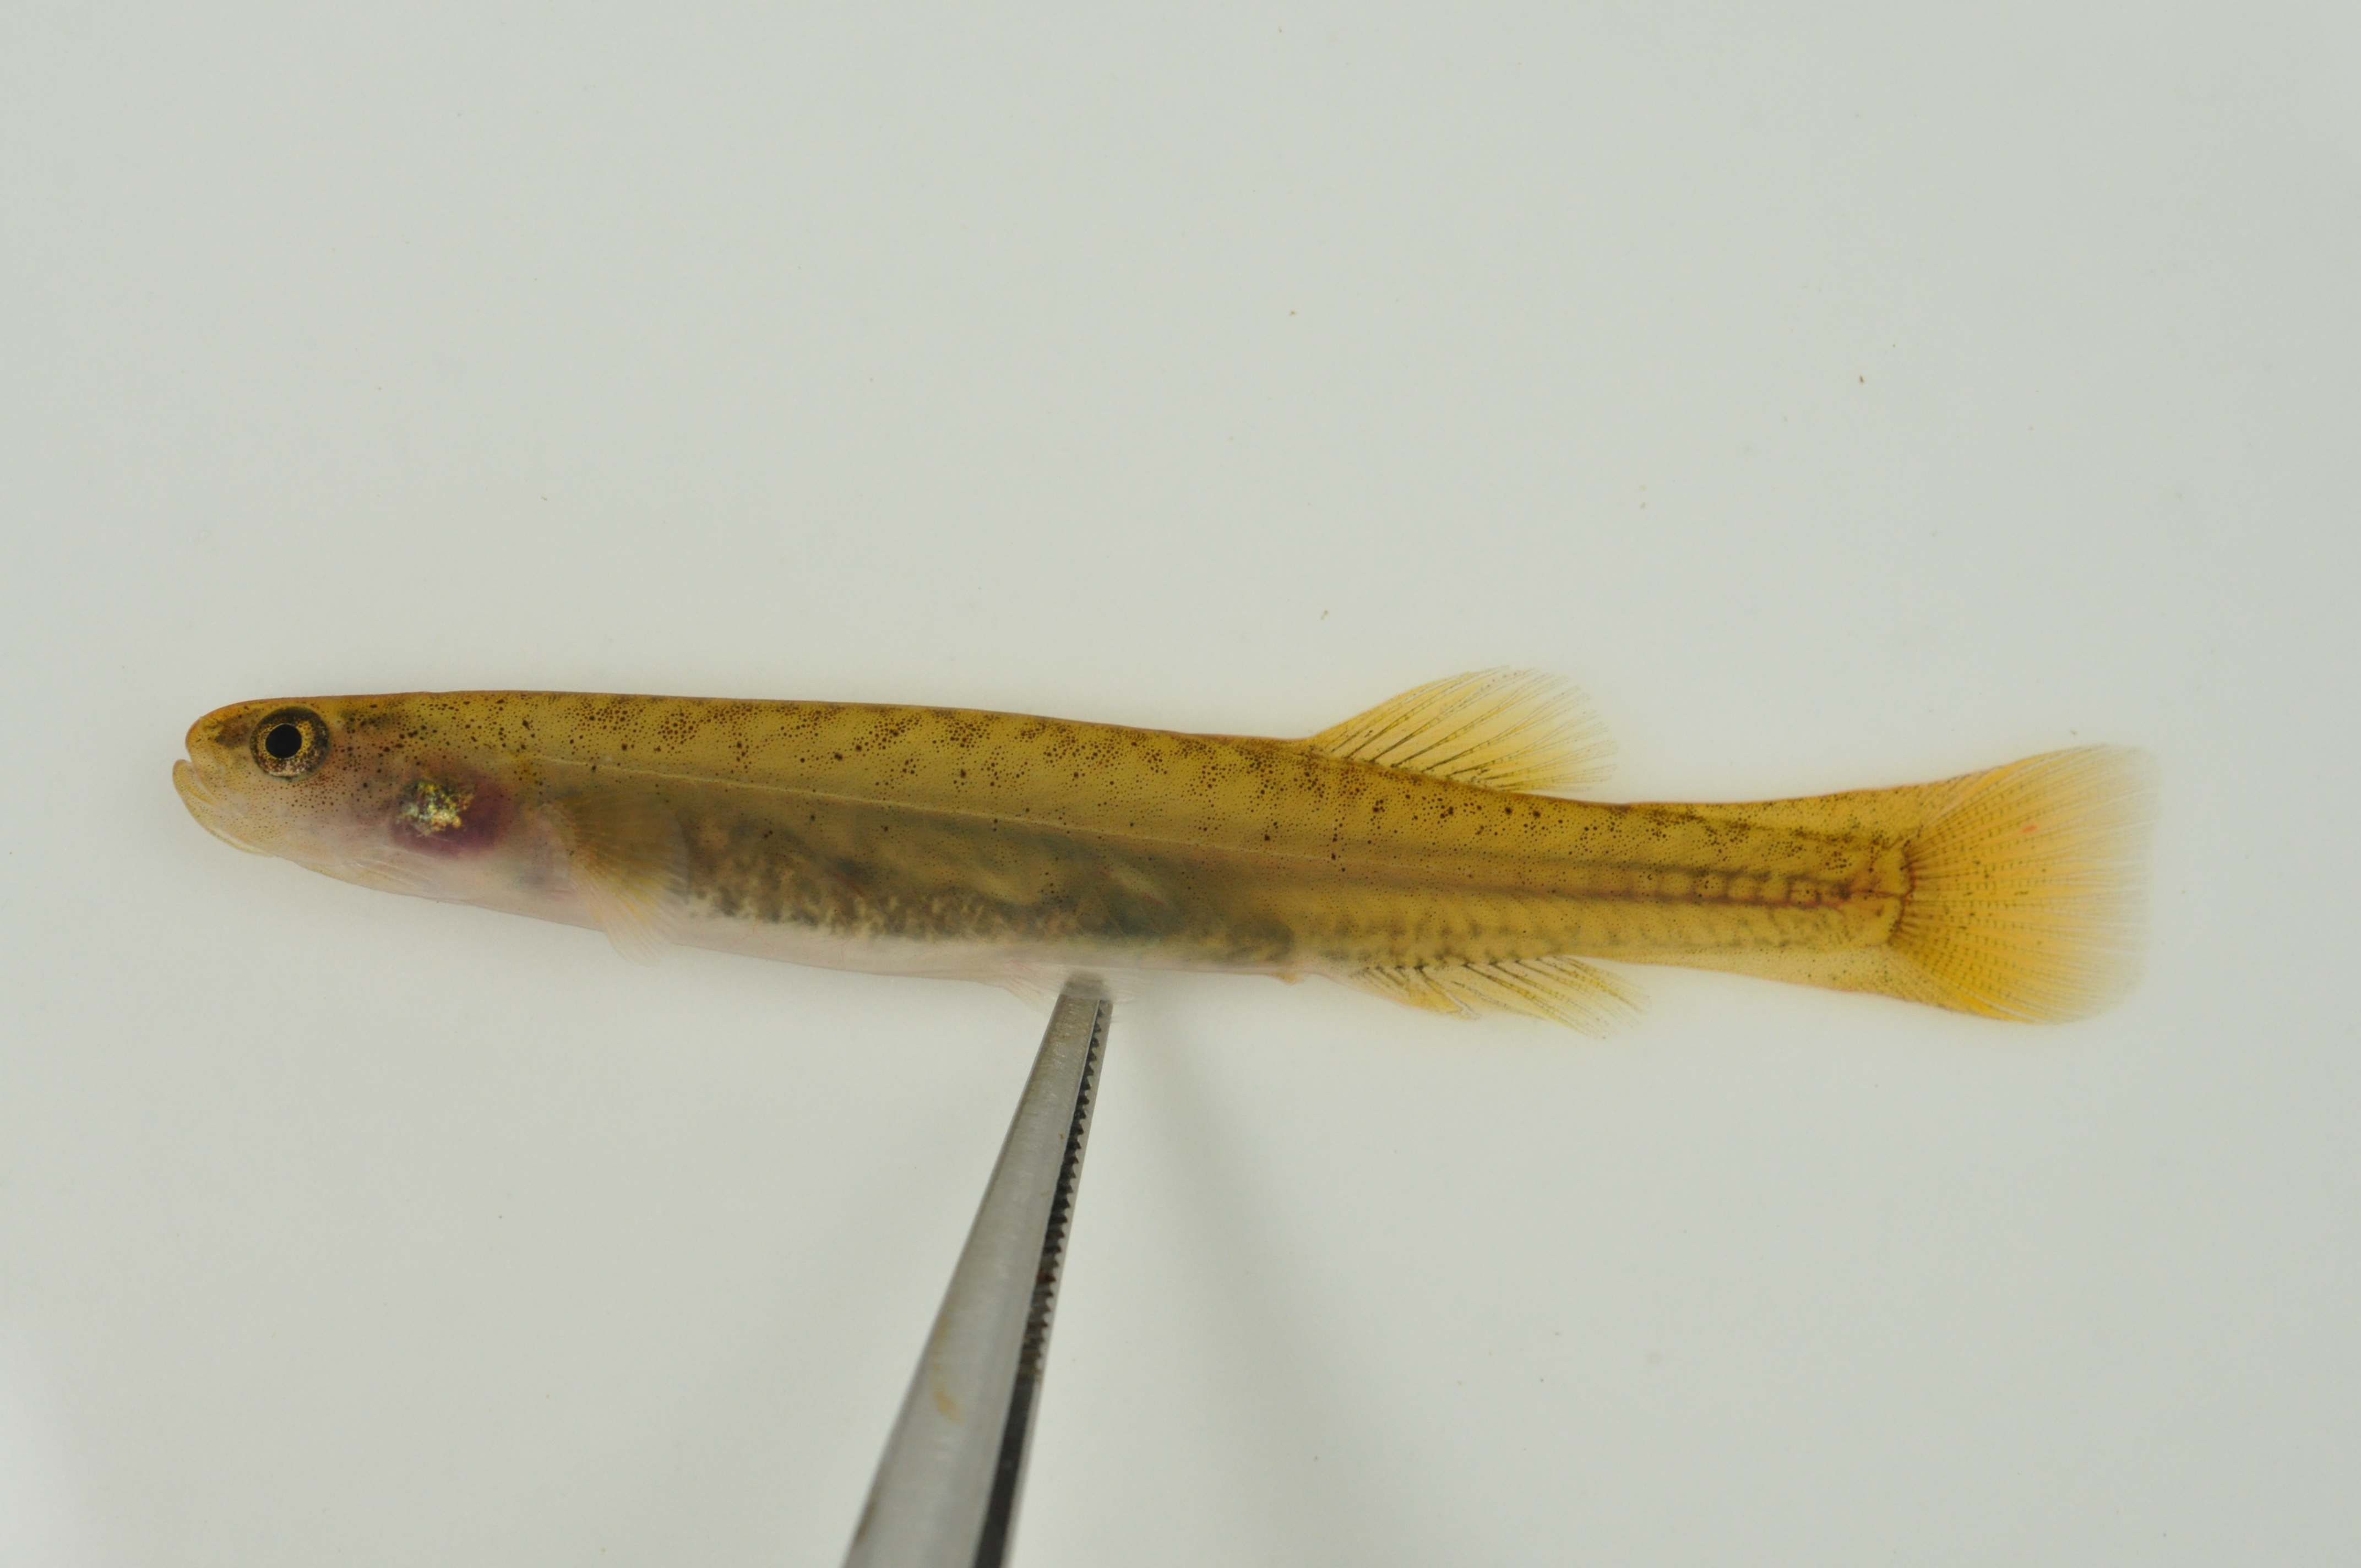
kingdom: Animalia
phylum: Chordata
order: Osmeriformes
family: Galaxiidae
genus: Galaxias
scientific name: Galaxias zebratus
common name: Cape galaxias
